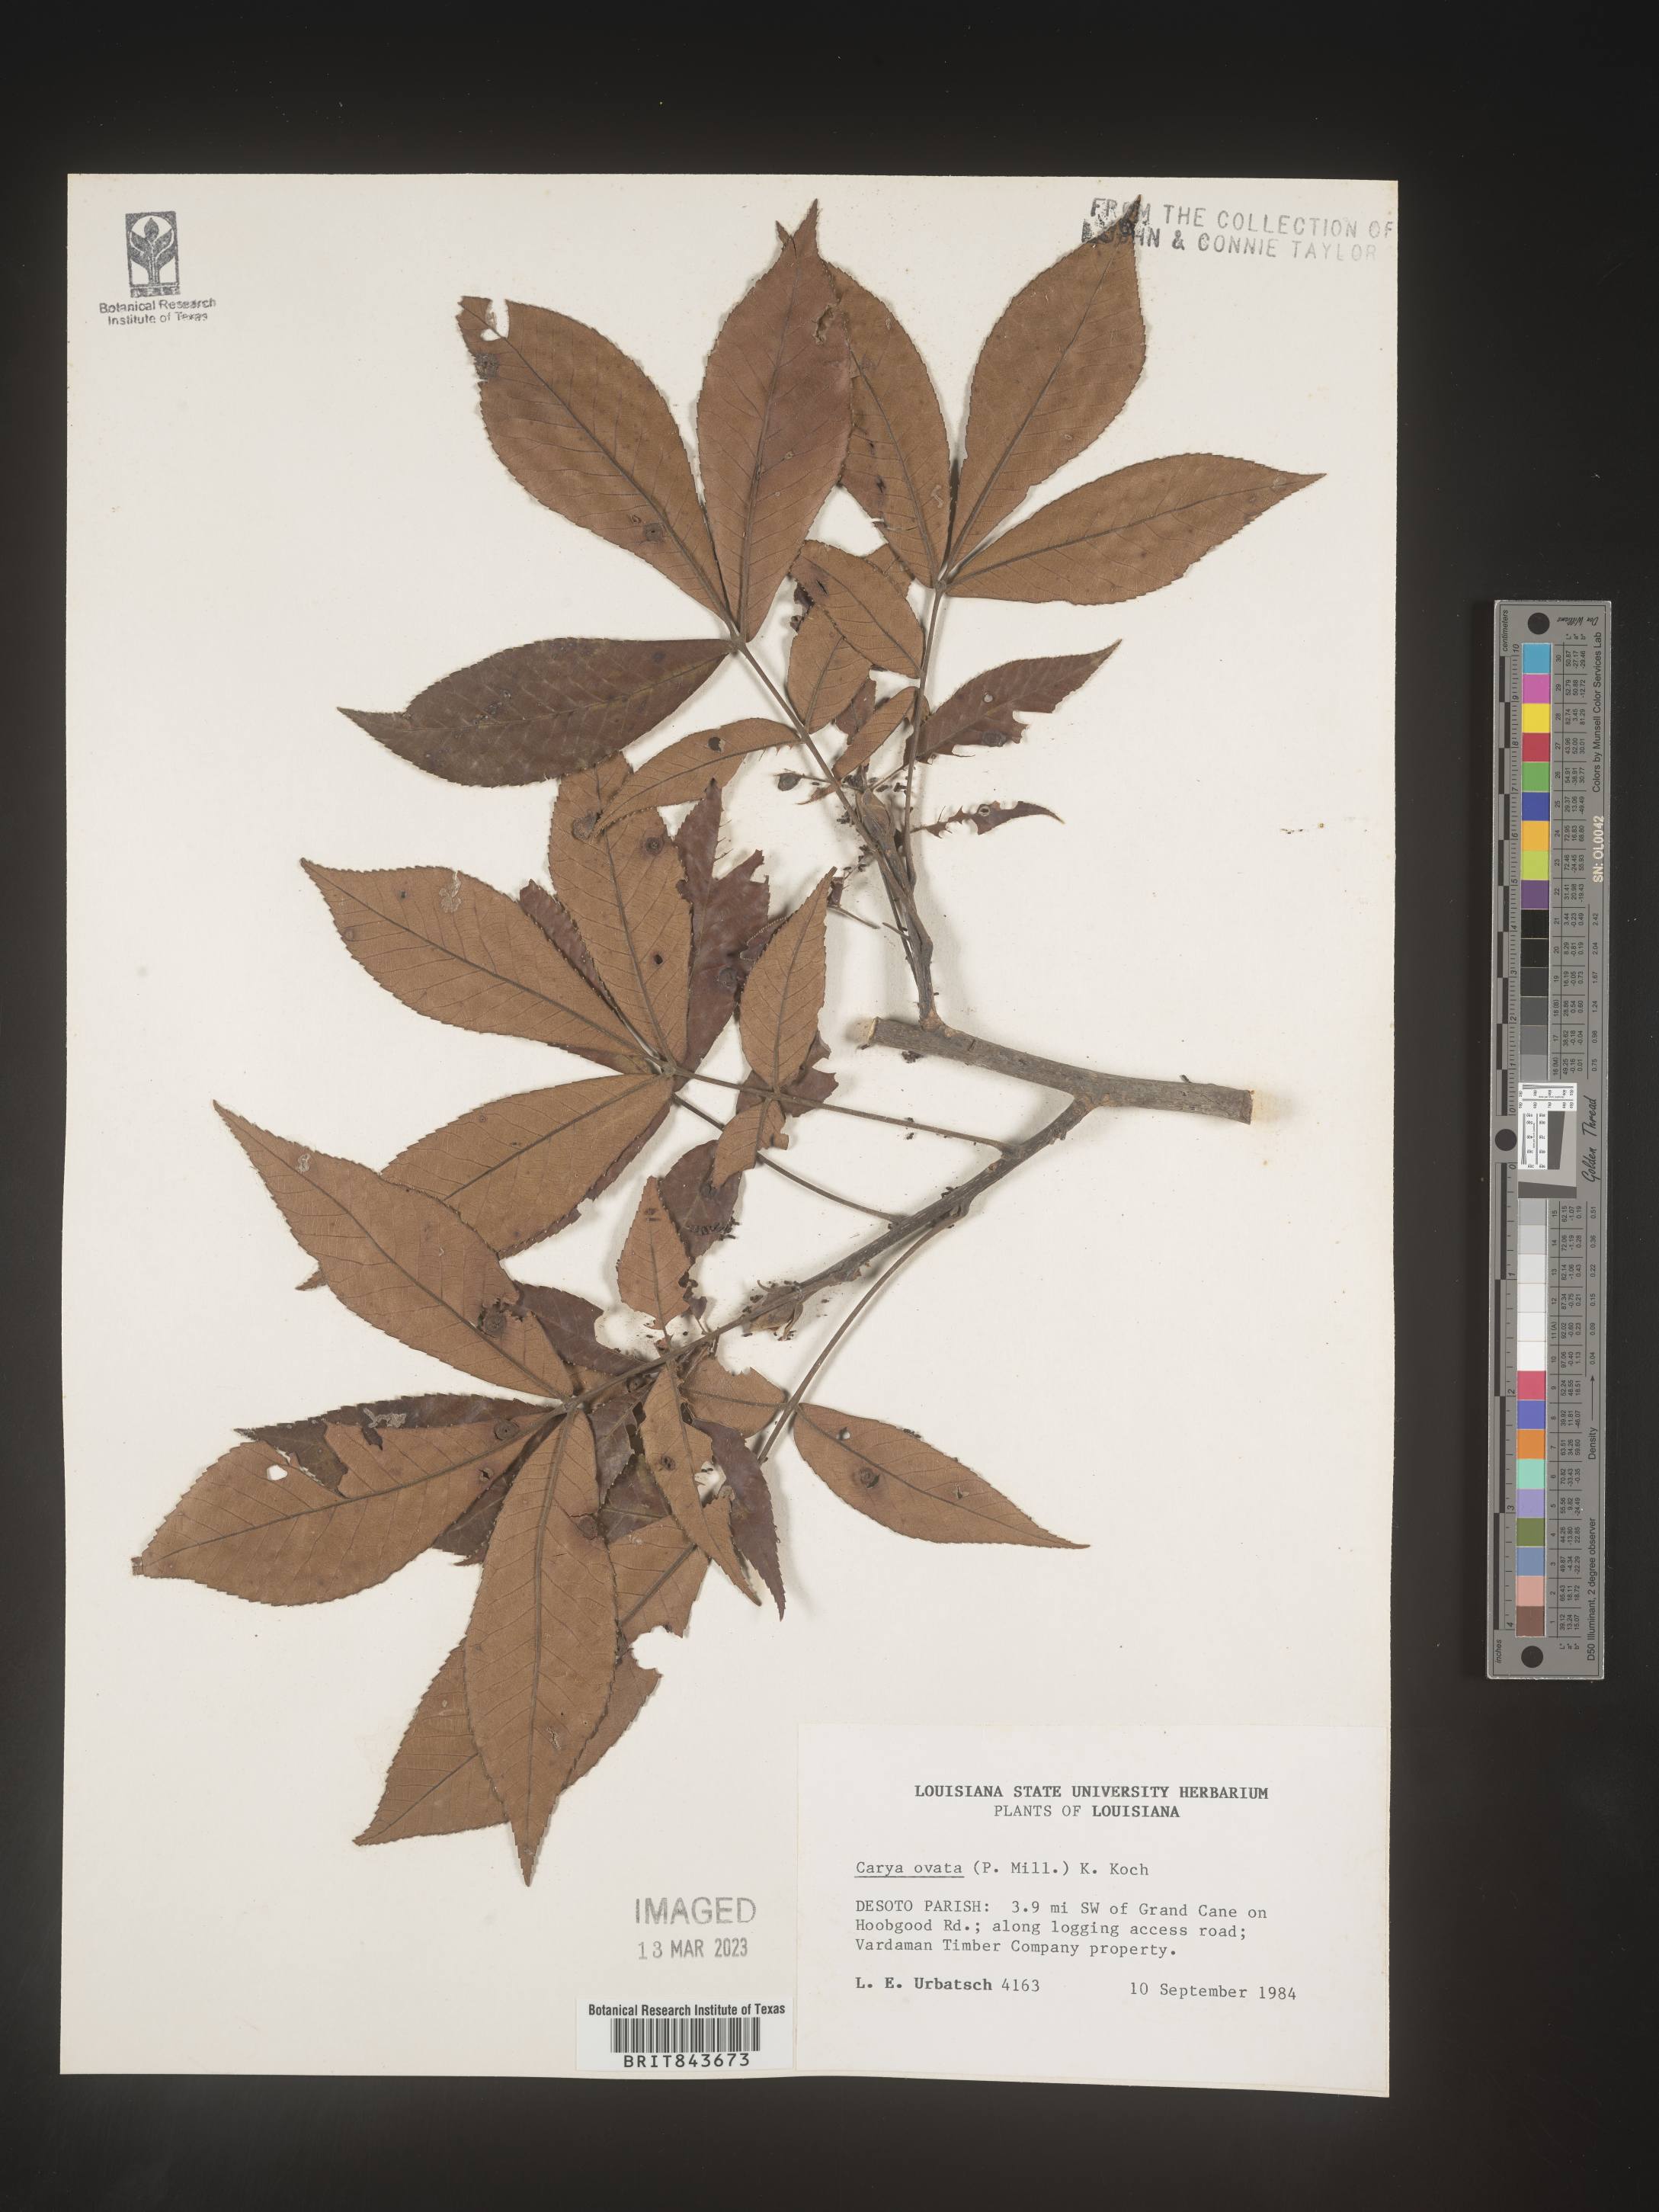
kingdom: Plantae
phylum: Tracheophyta
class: Magnoliopsida
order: Fagales
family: Juglandaceae
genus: Carya
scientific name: Carya ovata
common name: Shagbark hickory
